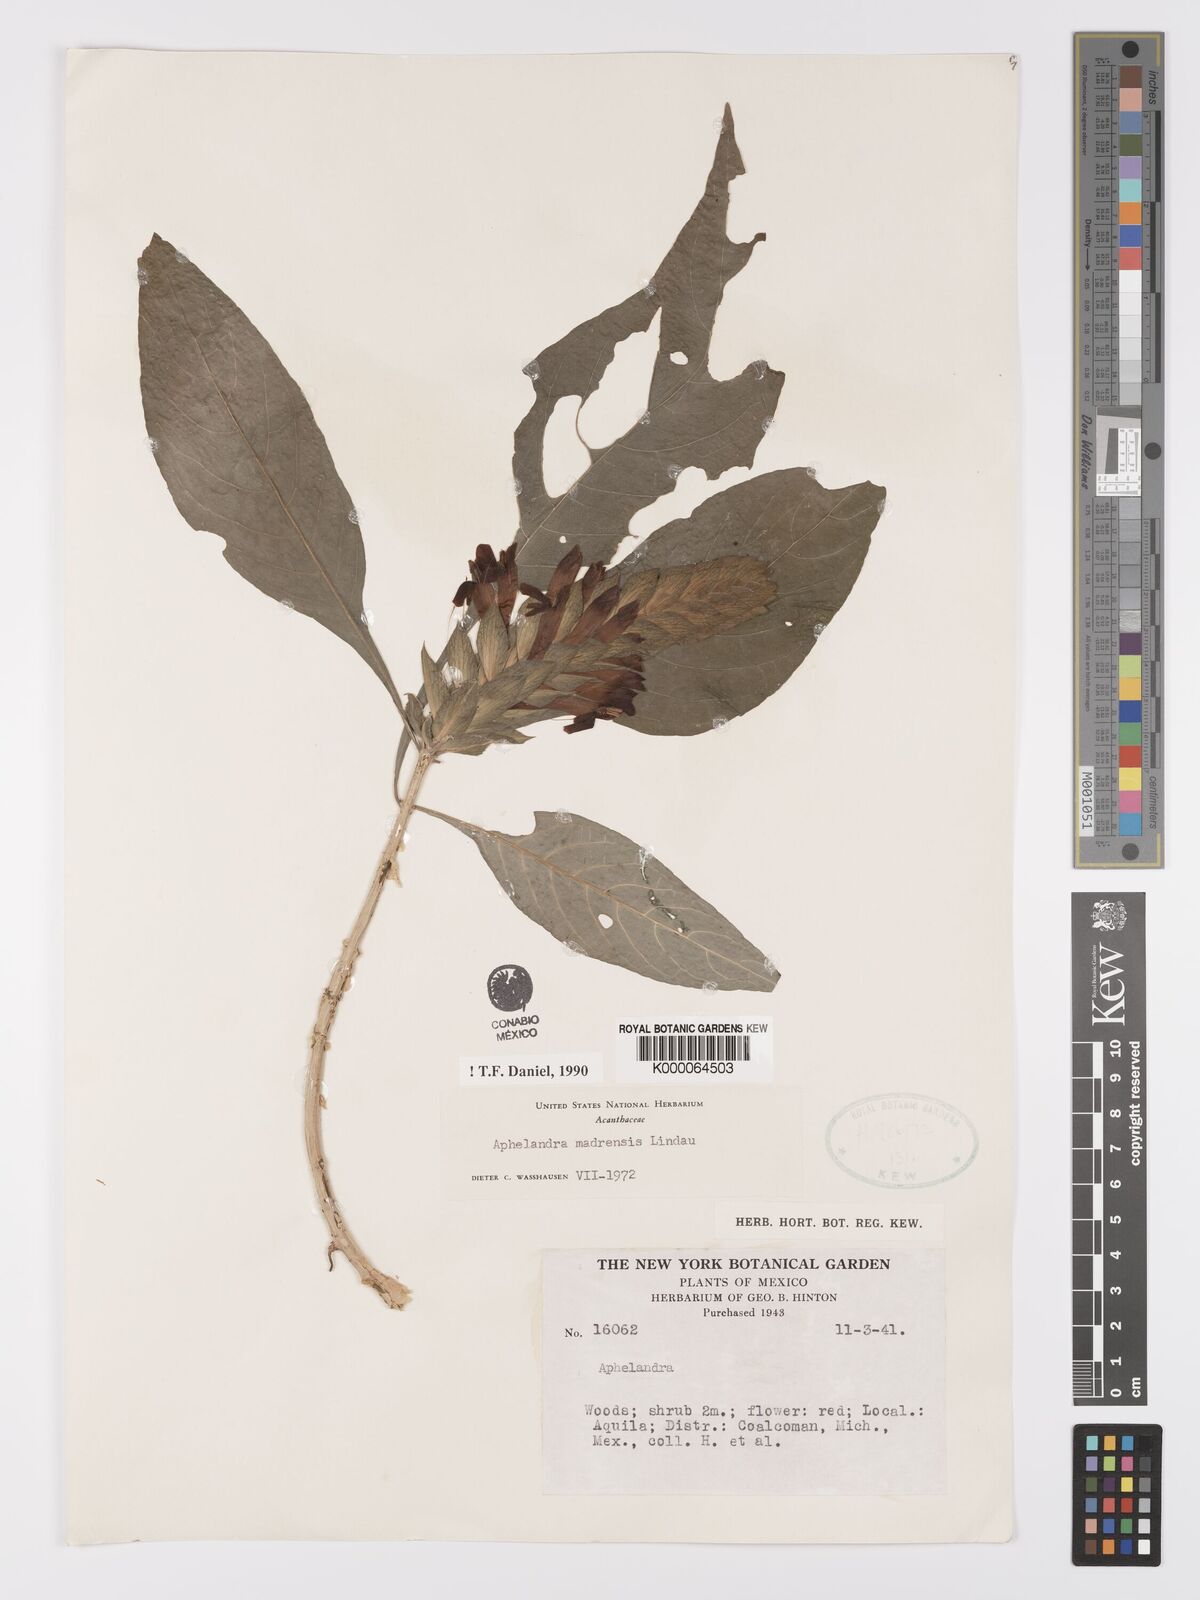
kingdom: Plantae
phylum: Tracheophyta
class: Magnoliopsida
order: Lamiales
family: Acanthaceae
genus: Aphelandra
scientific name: Aphelandra madrensis
